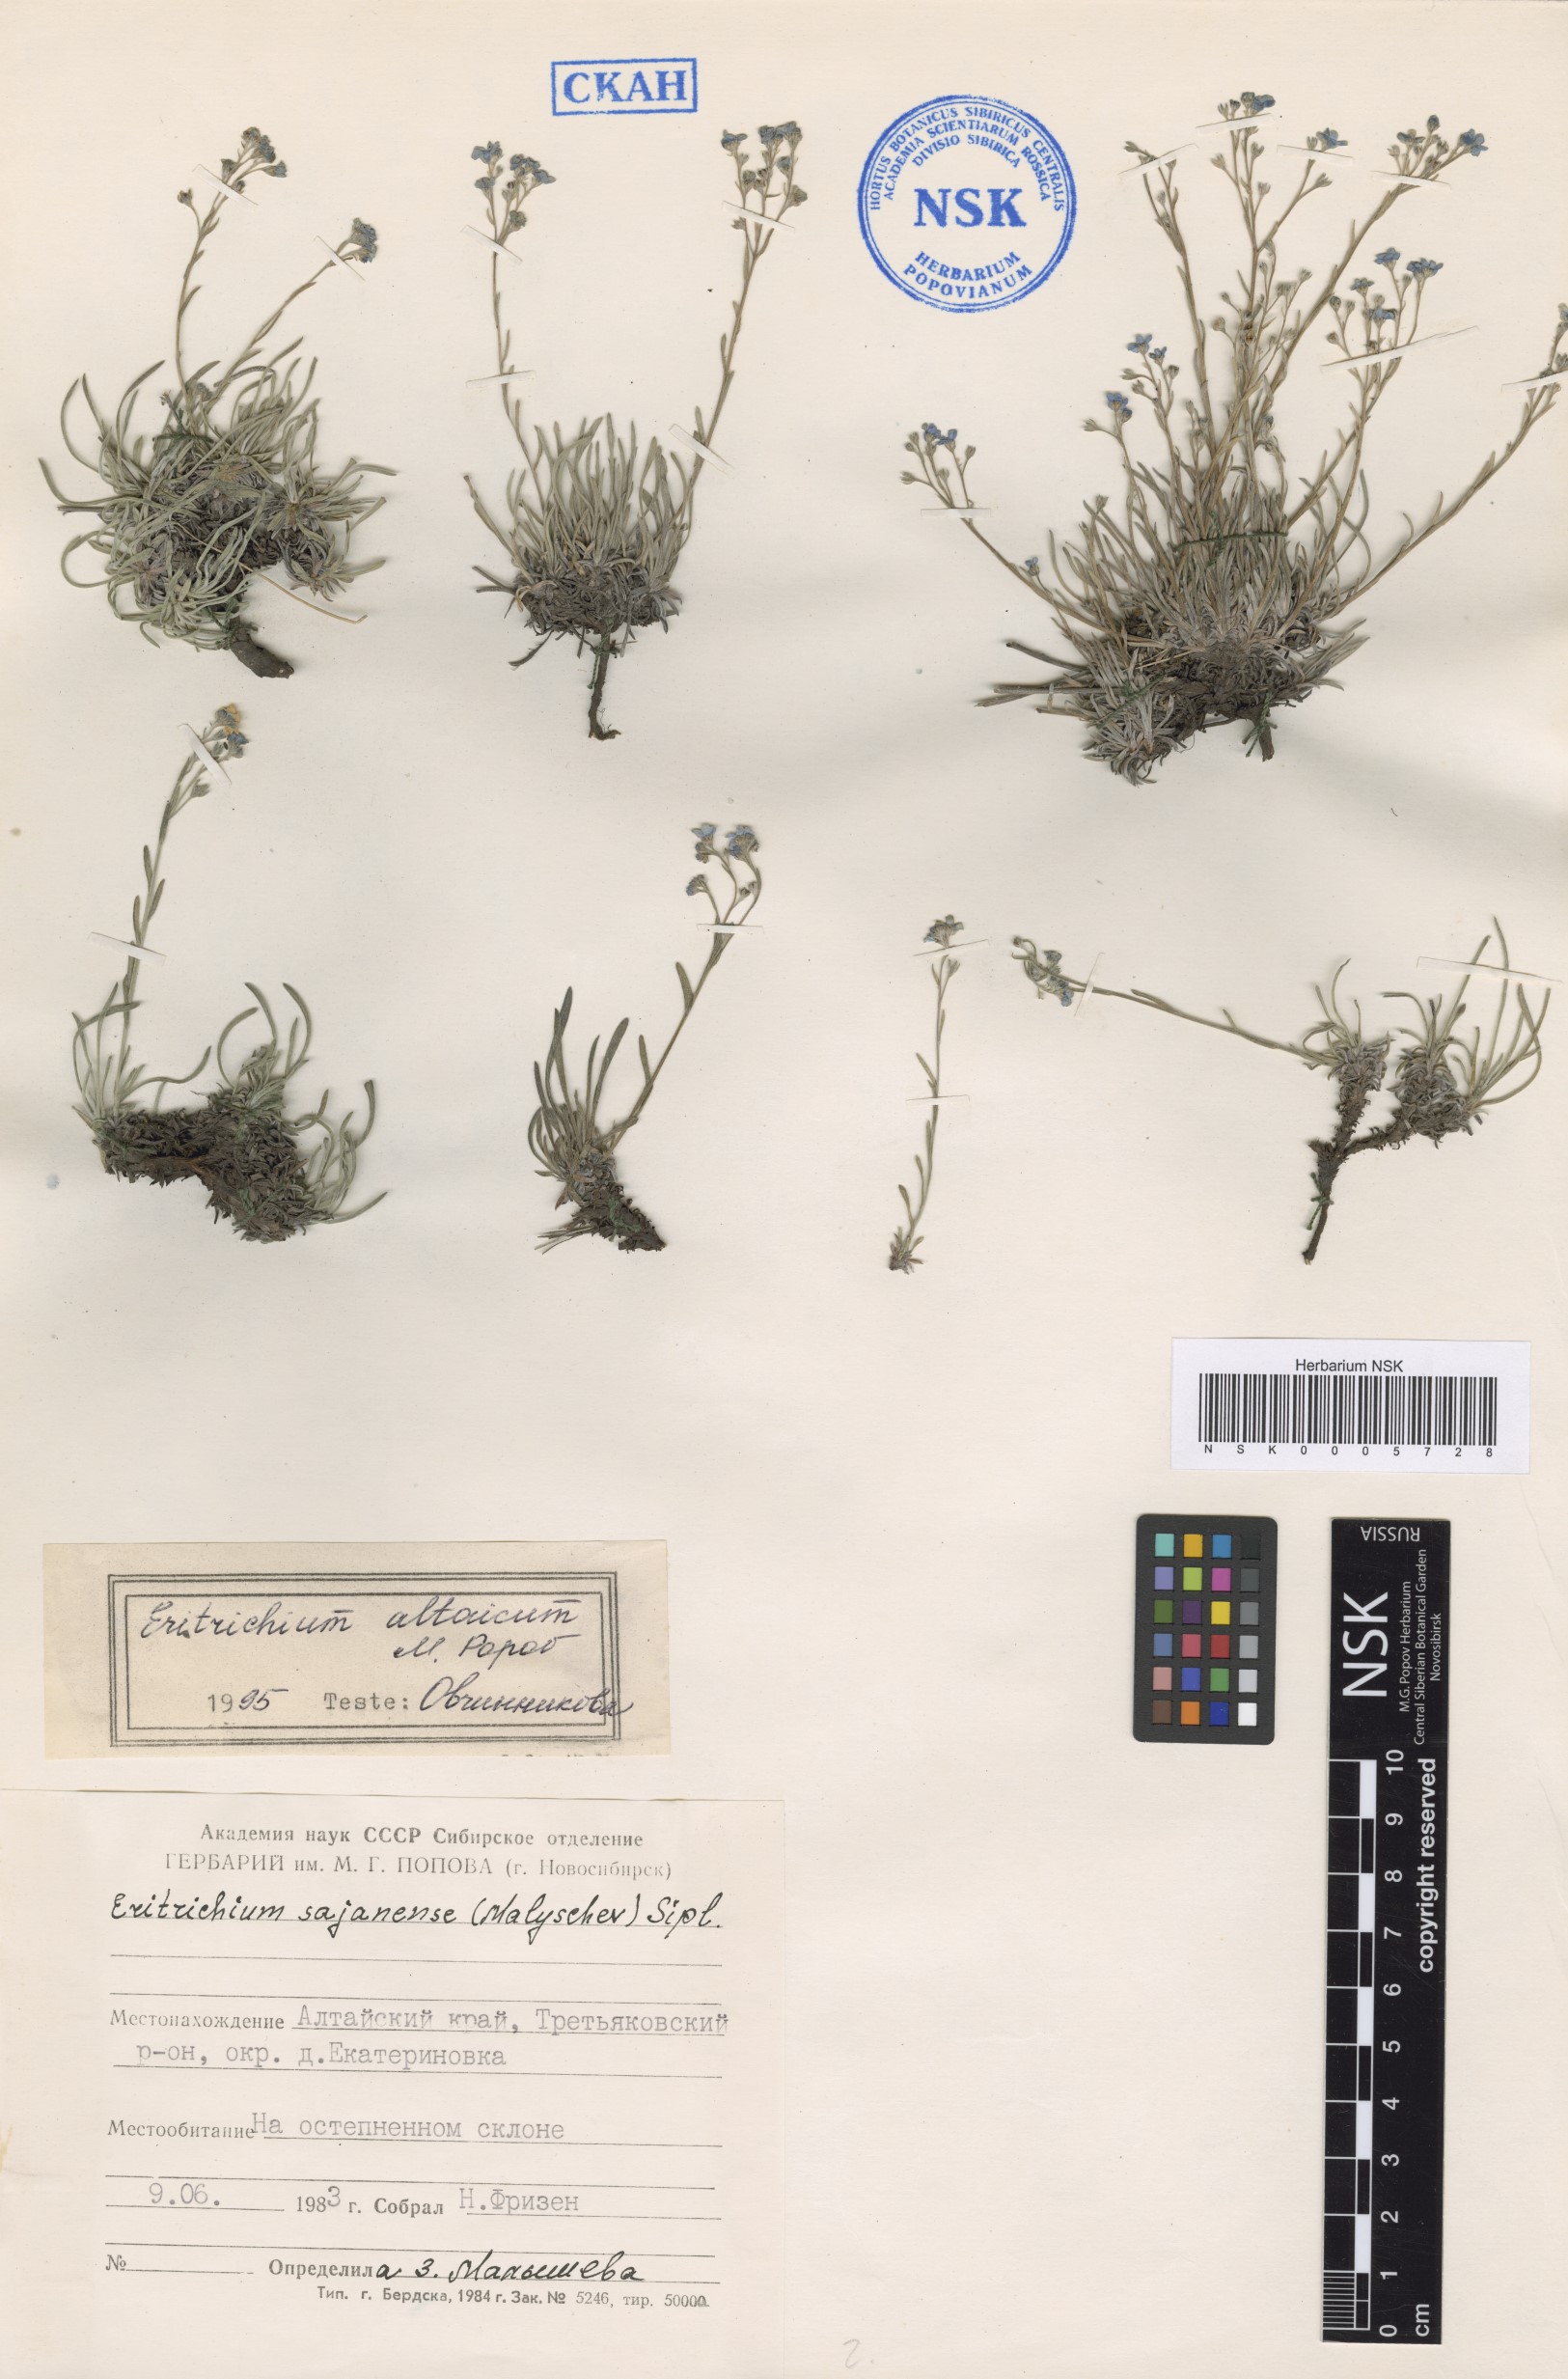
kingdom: Plantae
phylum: Tracheophyta
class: Magnoliopsida
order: Boraginales
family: Boraginaceae
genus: Eritrichium
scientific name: Eritrichium pauciflorum
